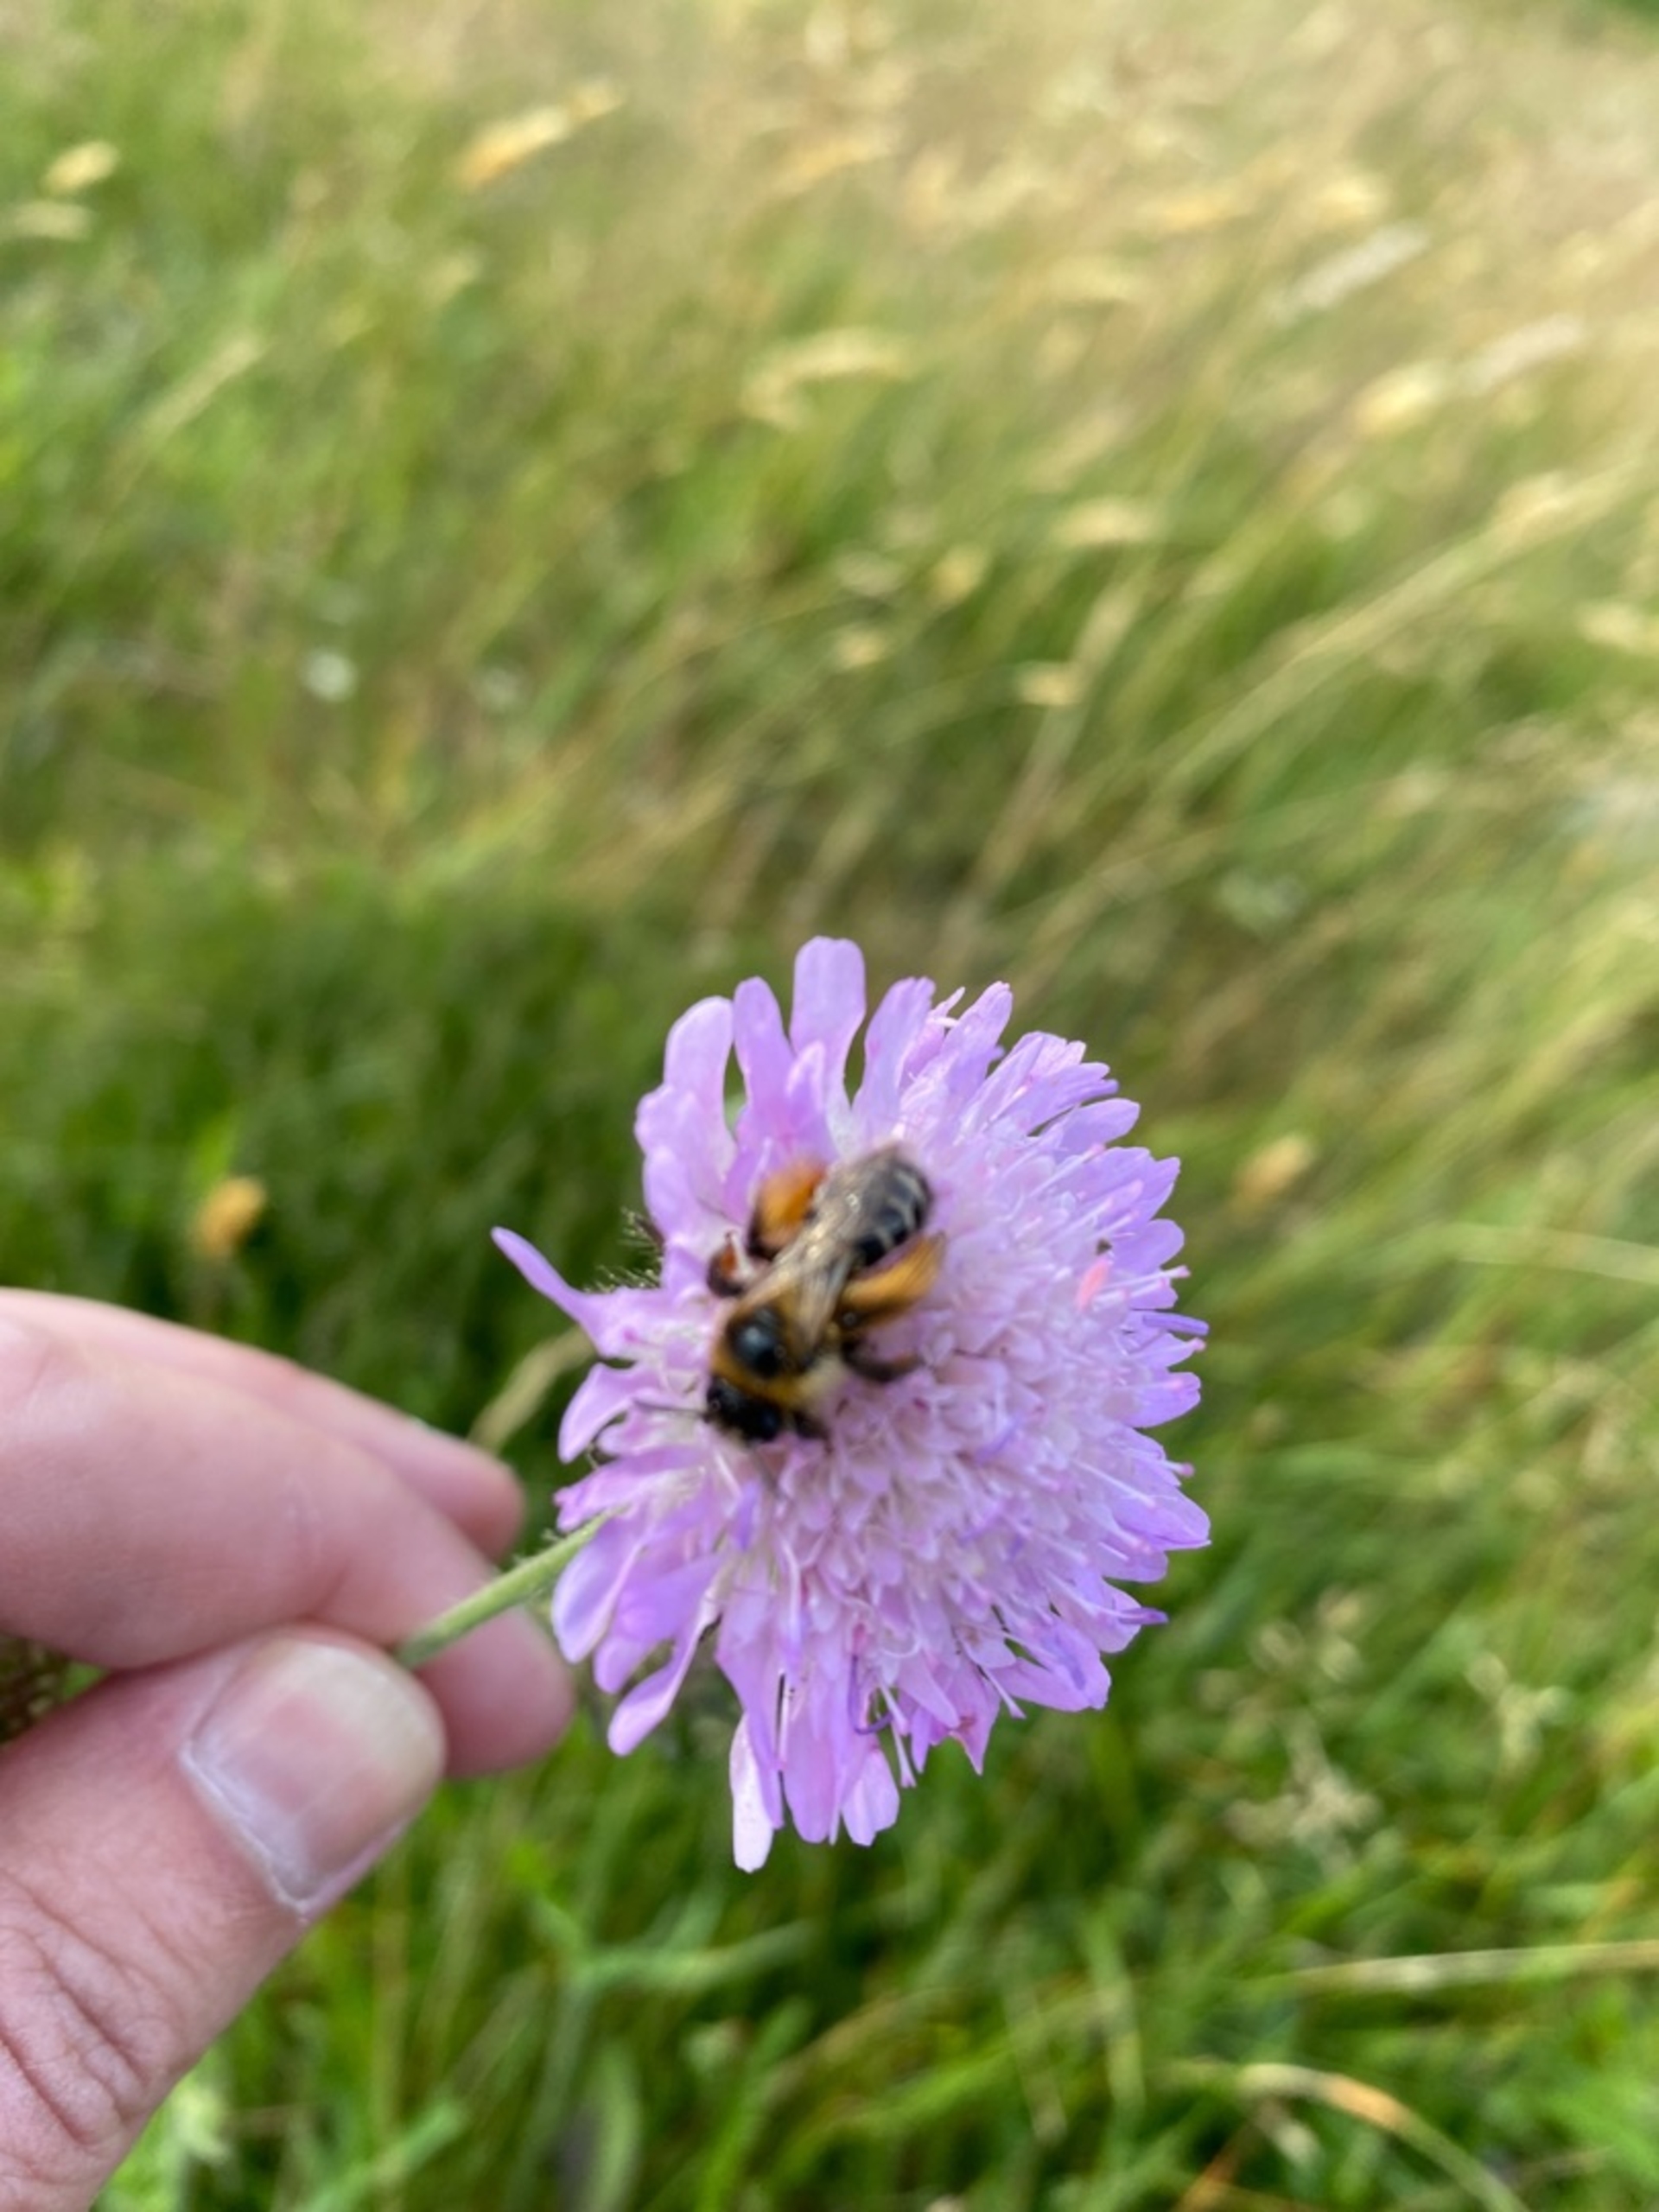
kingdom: Animalia
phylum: Arthropoda
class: Insecta
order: Hymenoptera
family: Melittidae
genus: Dasypoda
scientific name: Dasypoda hirtipes
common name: Pragtbuksebi
